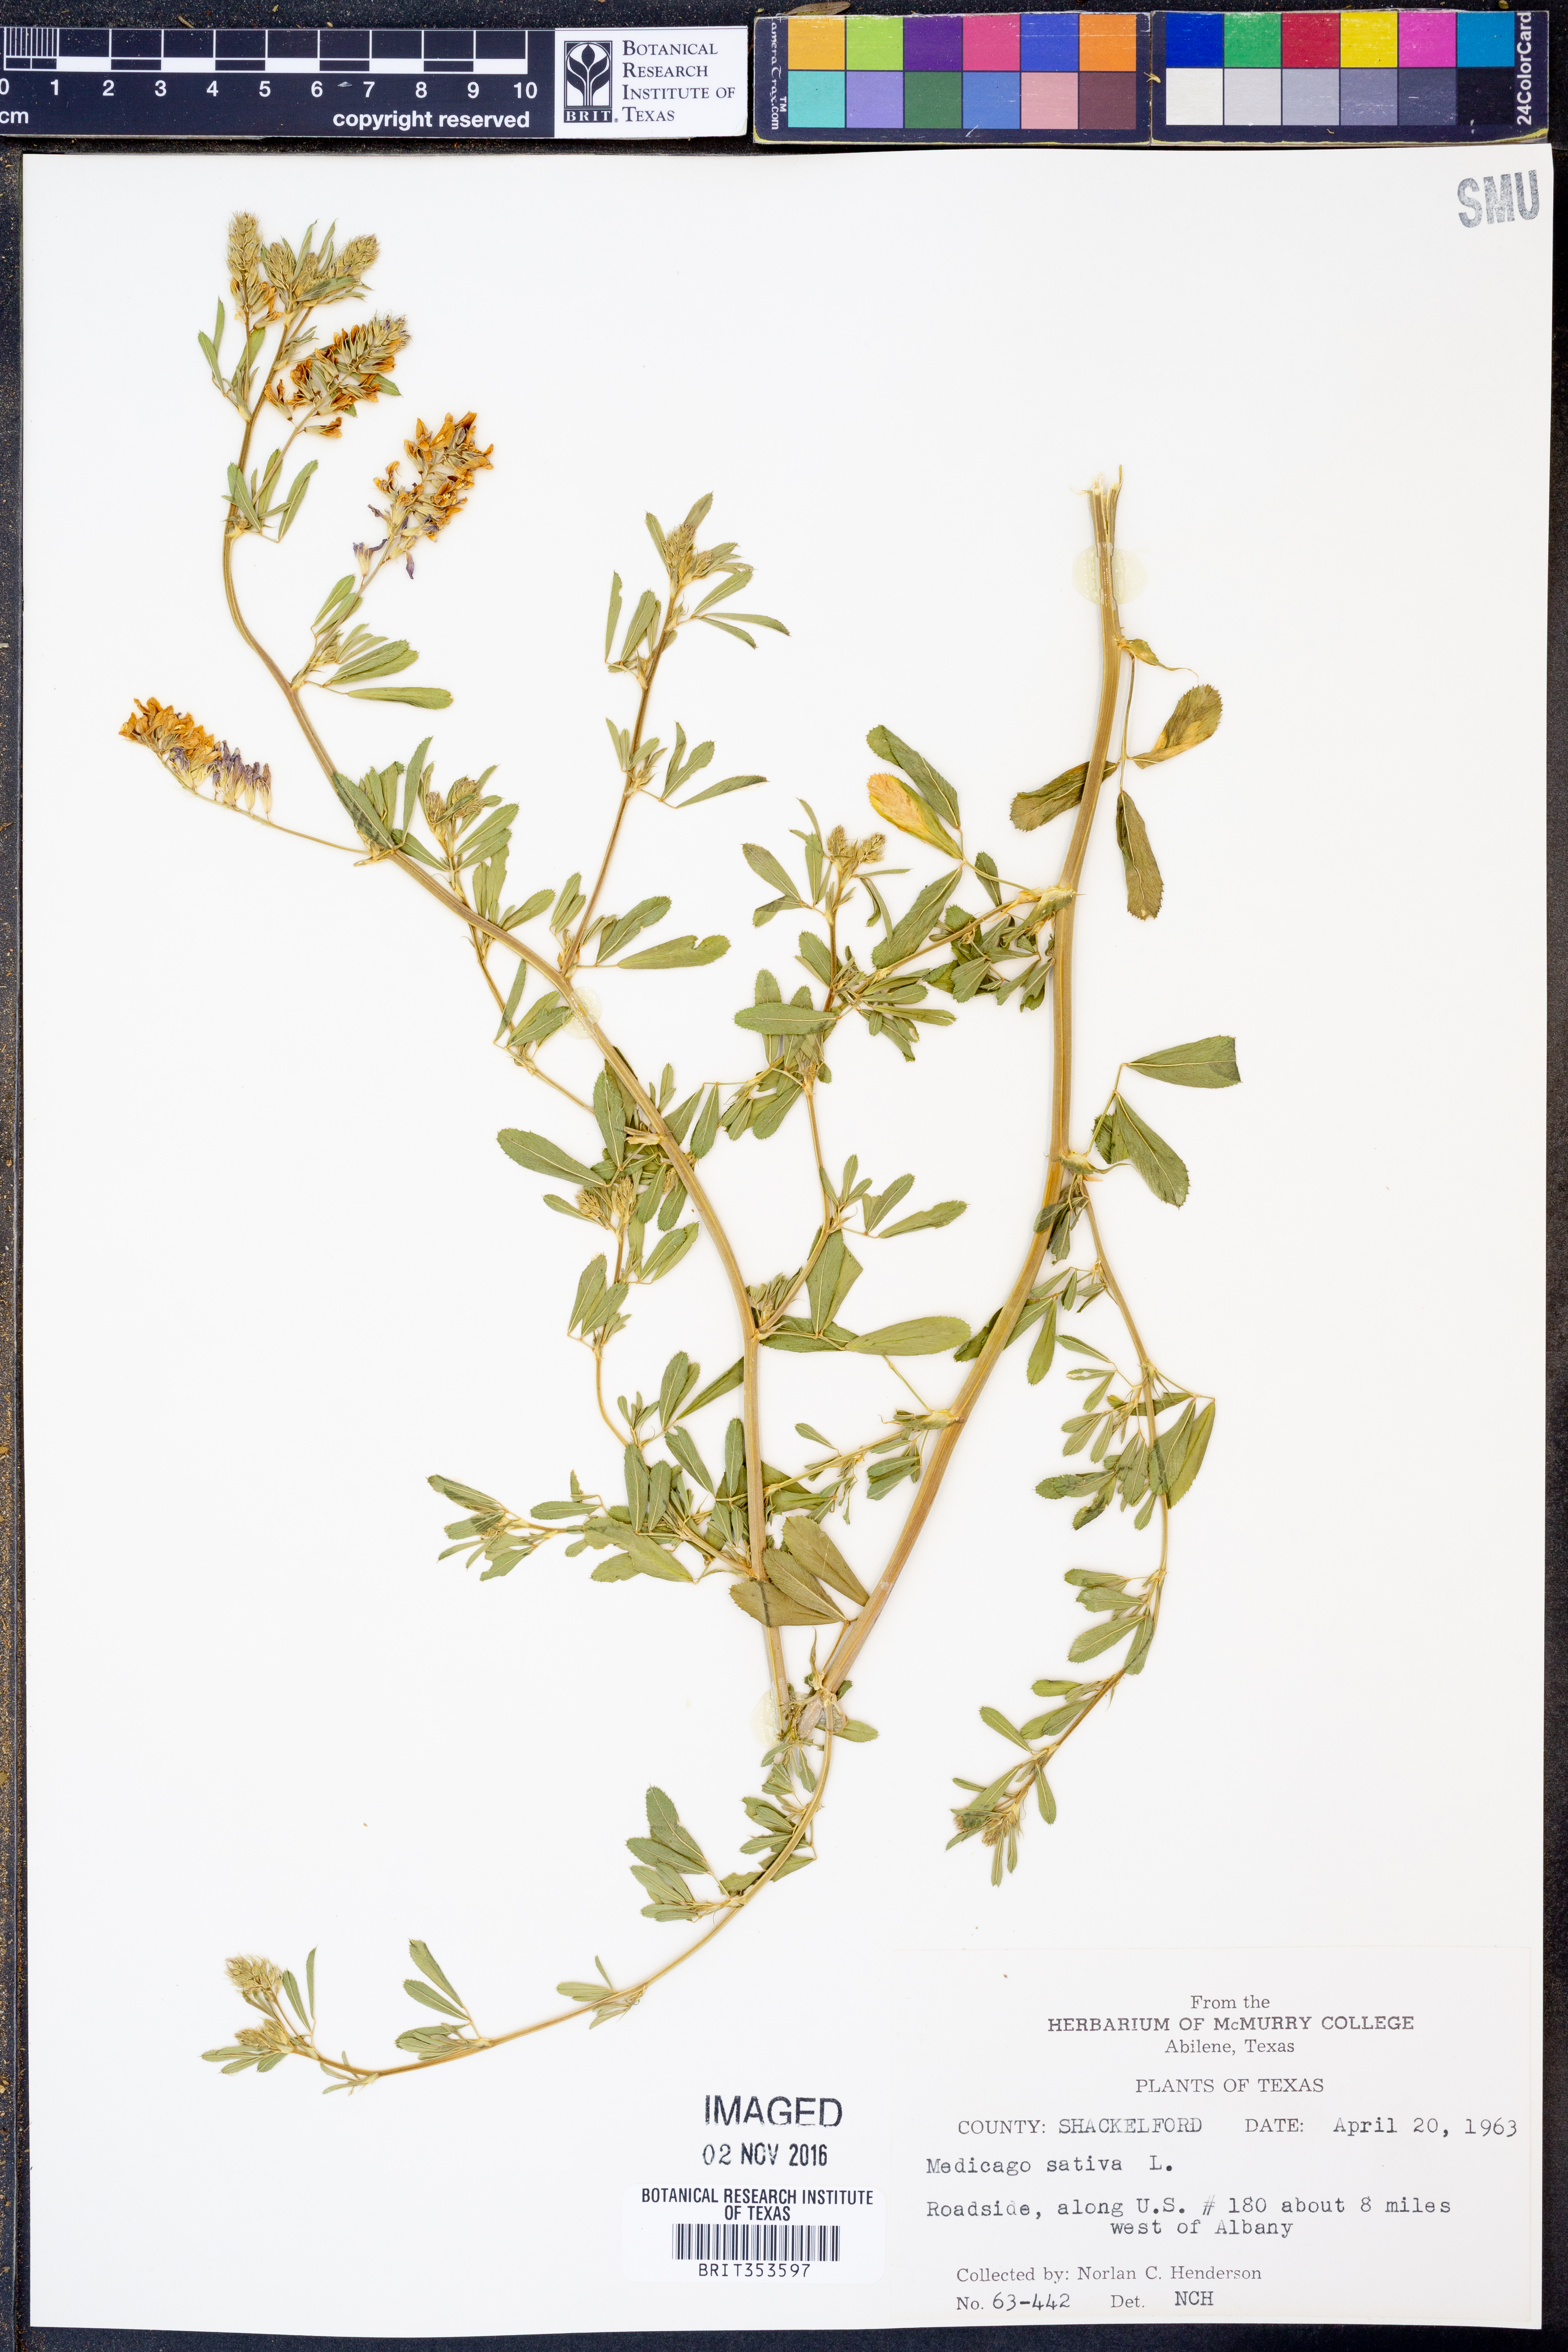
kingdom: Plantae
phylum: Tracheophyta
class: Magnoliopsida
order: Fabales
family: Fabaceae
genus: Medicago
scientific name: Medicago sativa
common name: Alfalfa
